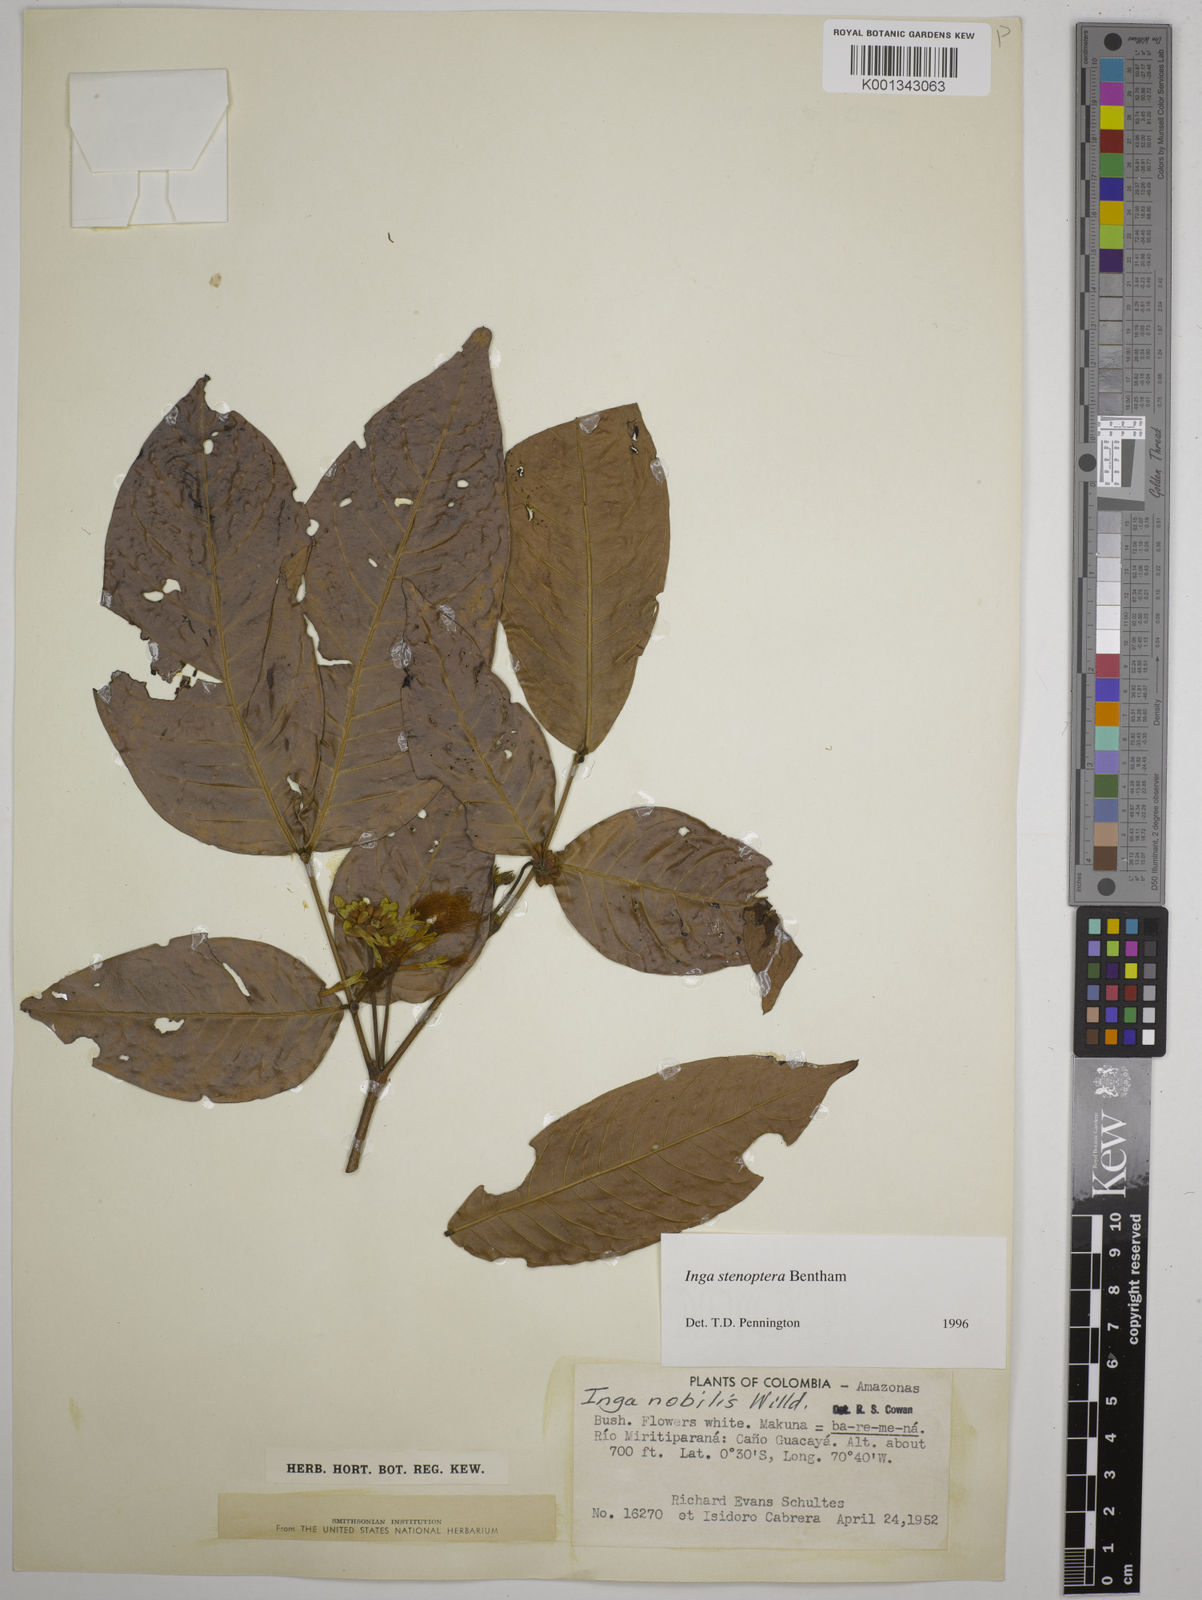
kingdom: Plantae
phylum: Tracheophyta
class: Magnoliopsida
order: Fabales
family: Fabaceae
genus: Inga
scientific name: Inga stenoptera
